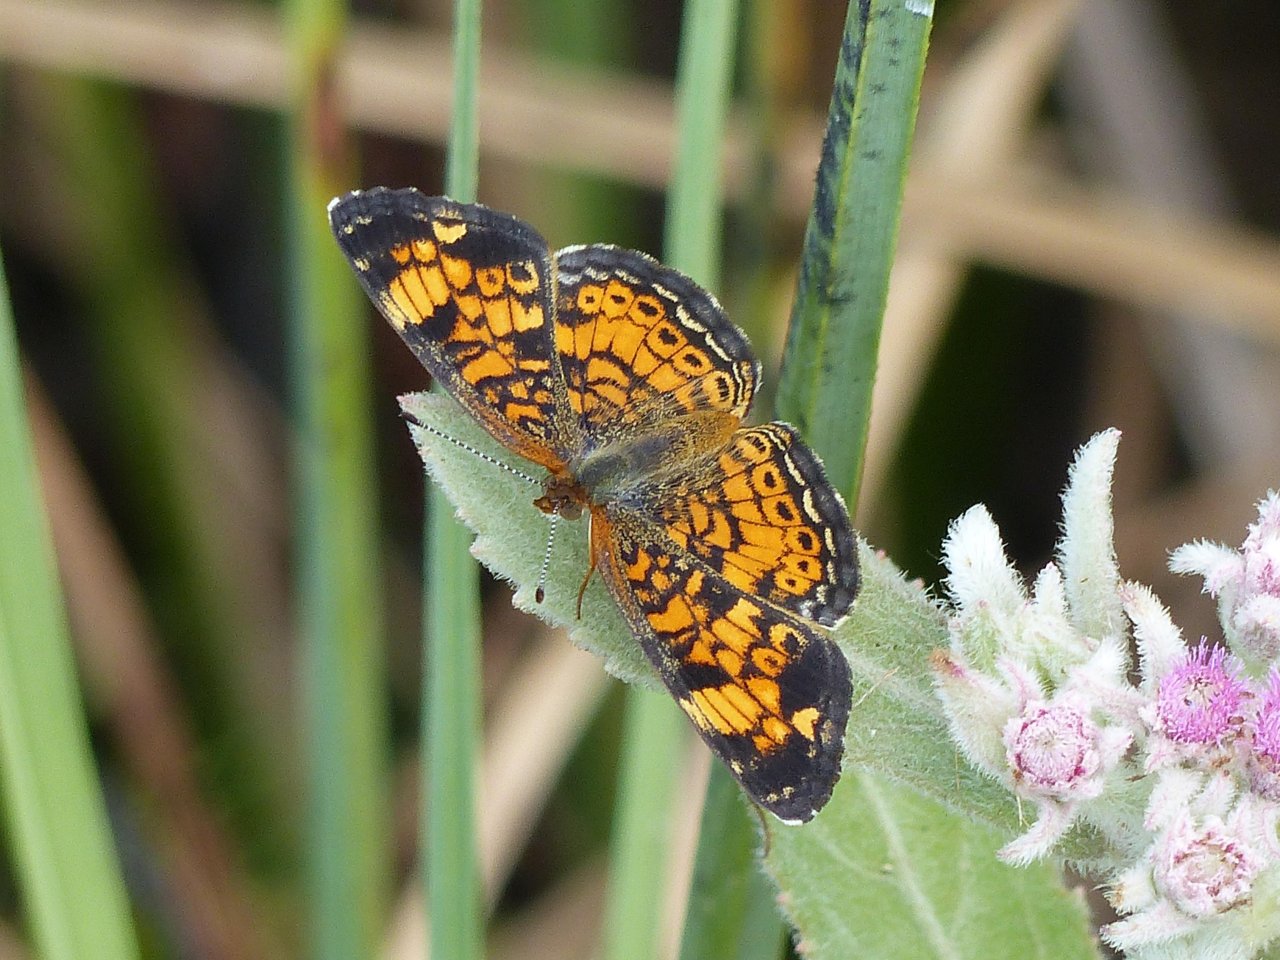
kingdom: Animalia
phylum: Arthropoda
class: Insecta
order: Lepidoptera
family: Nymphalidae
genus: Phyciodes
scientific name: Phyciodes tharos
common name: Pearl Crescent
